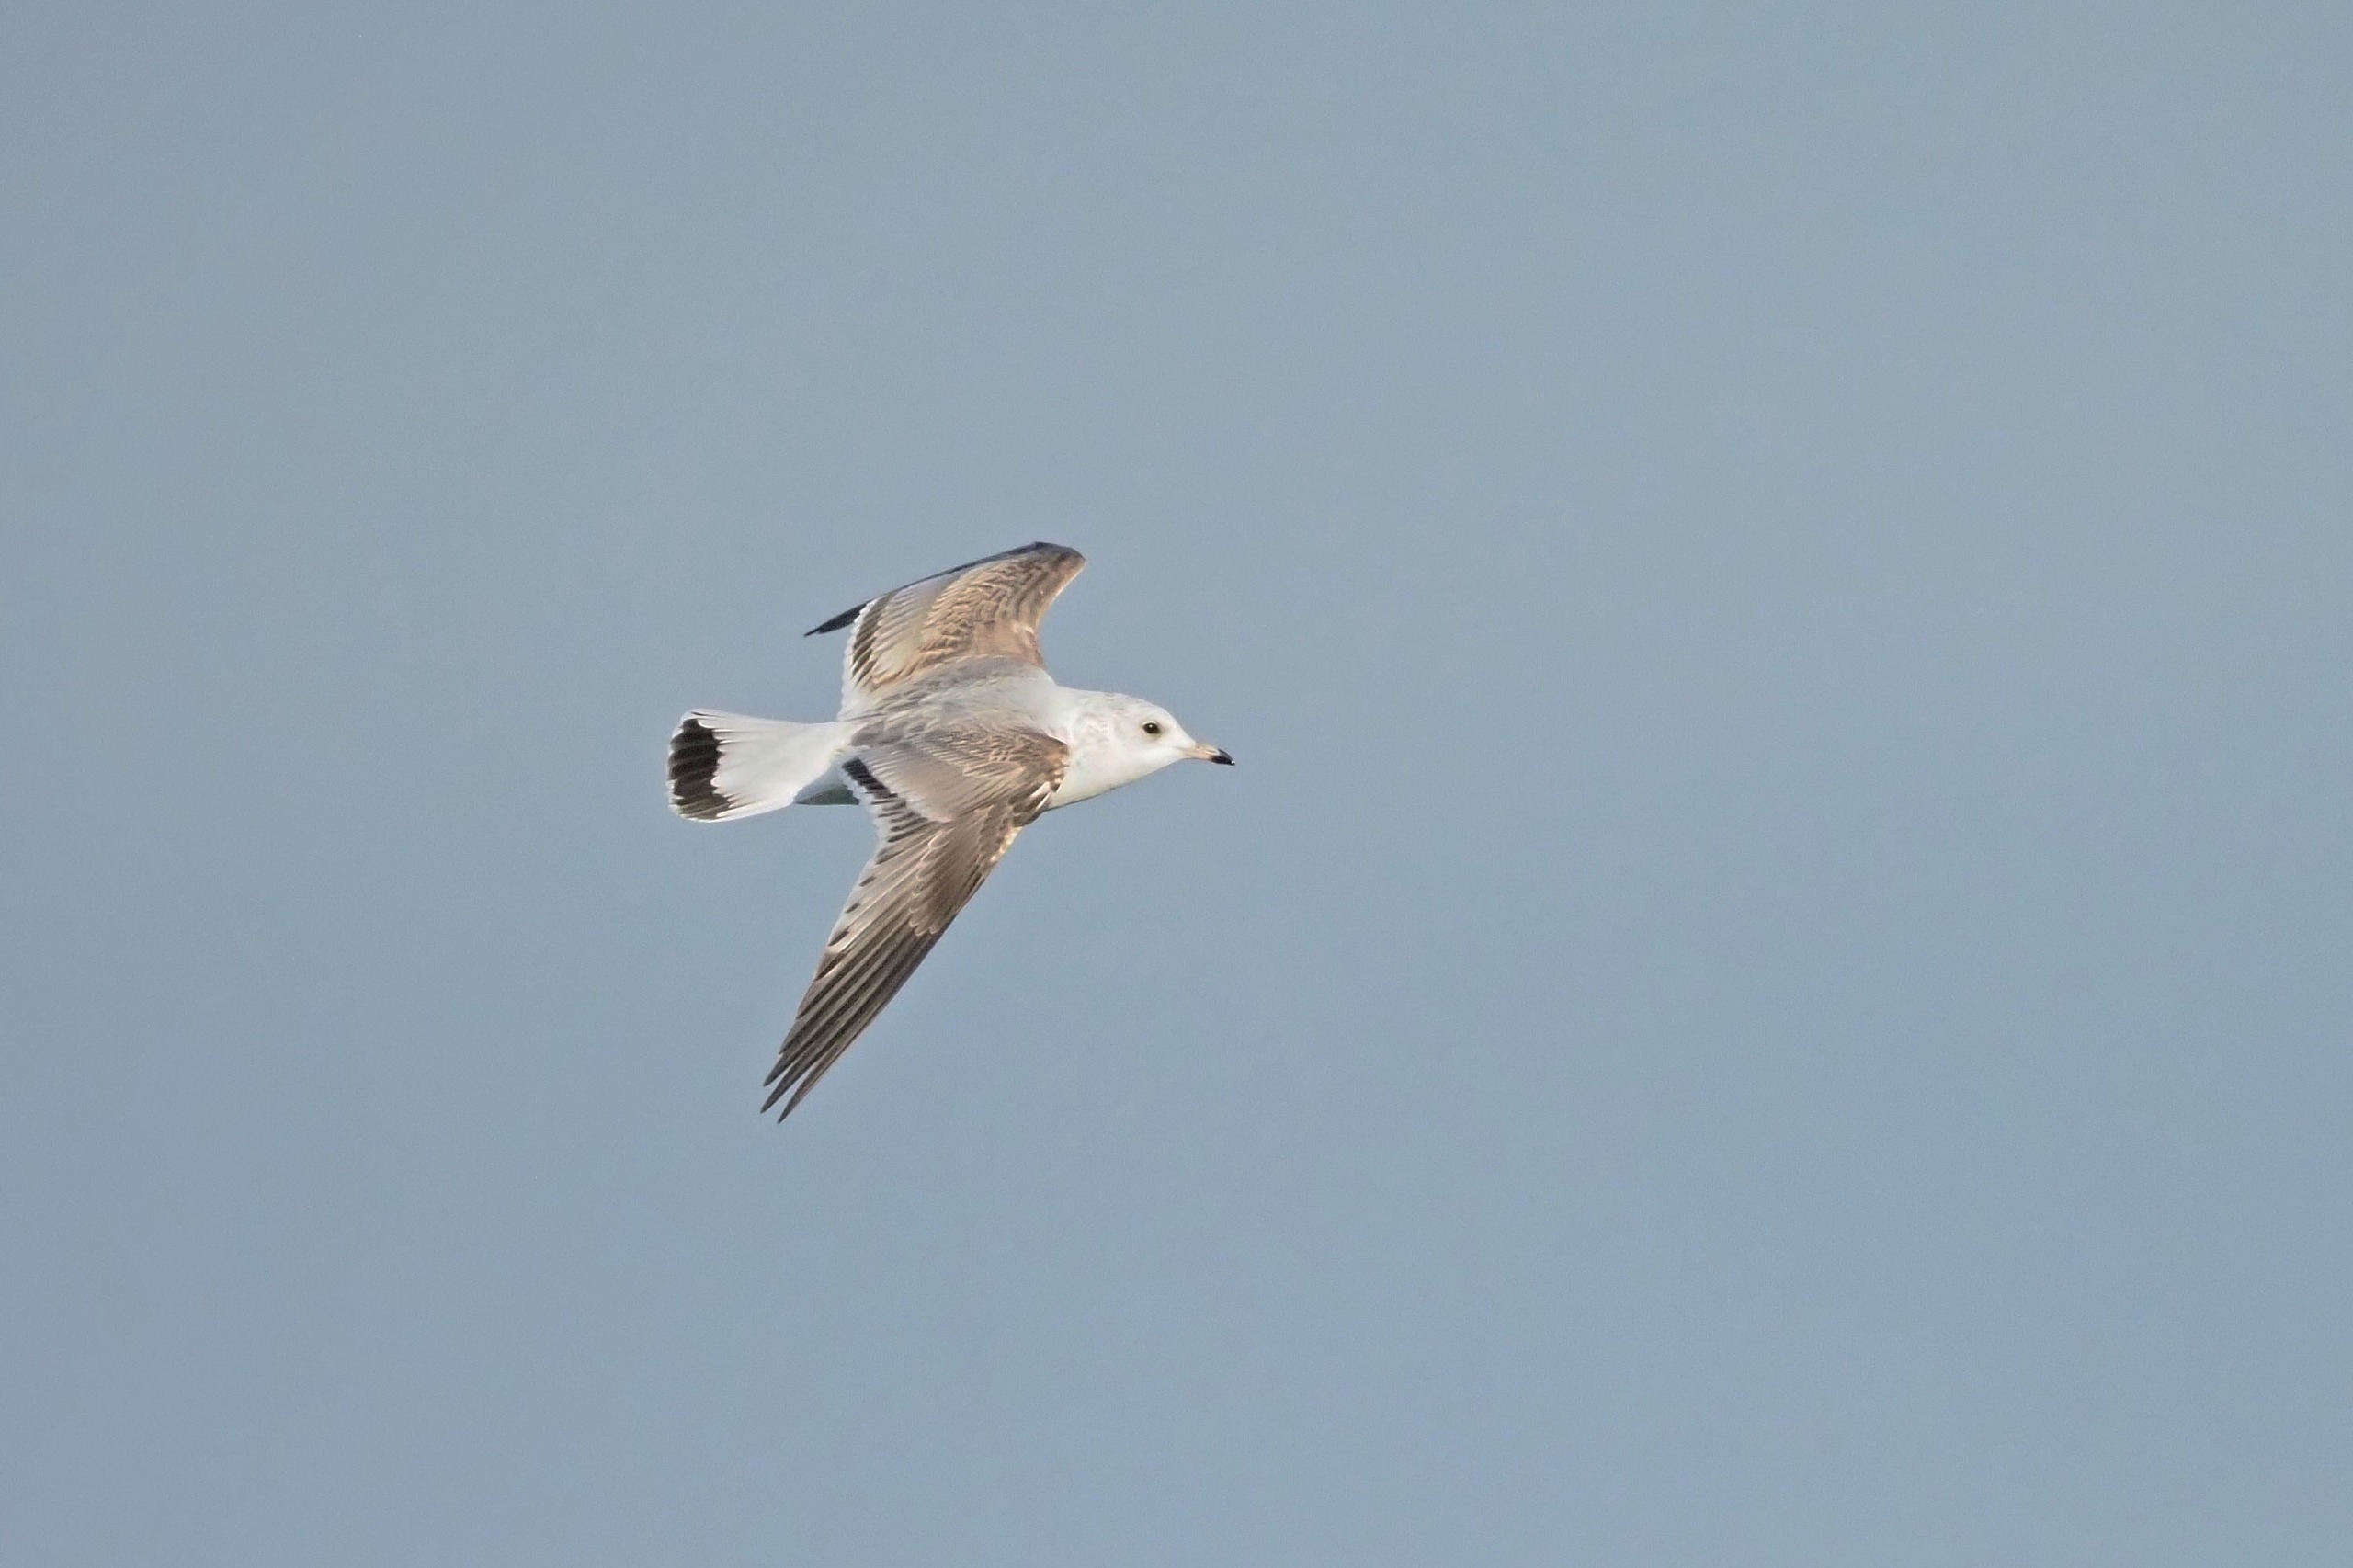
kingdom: Animalia
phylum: Chordata
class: Aves
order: Charadriiformes
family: Laridae
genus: Larus
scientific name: Larus canus
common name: Stormmåge
